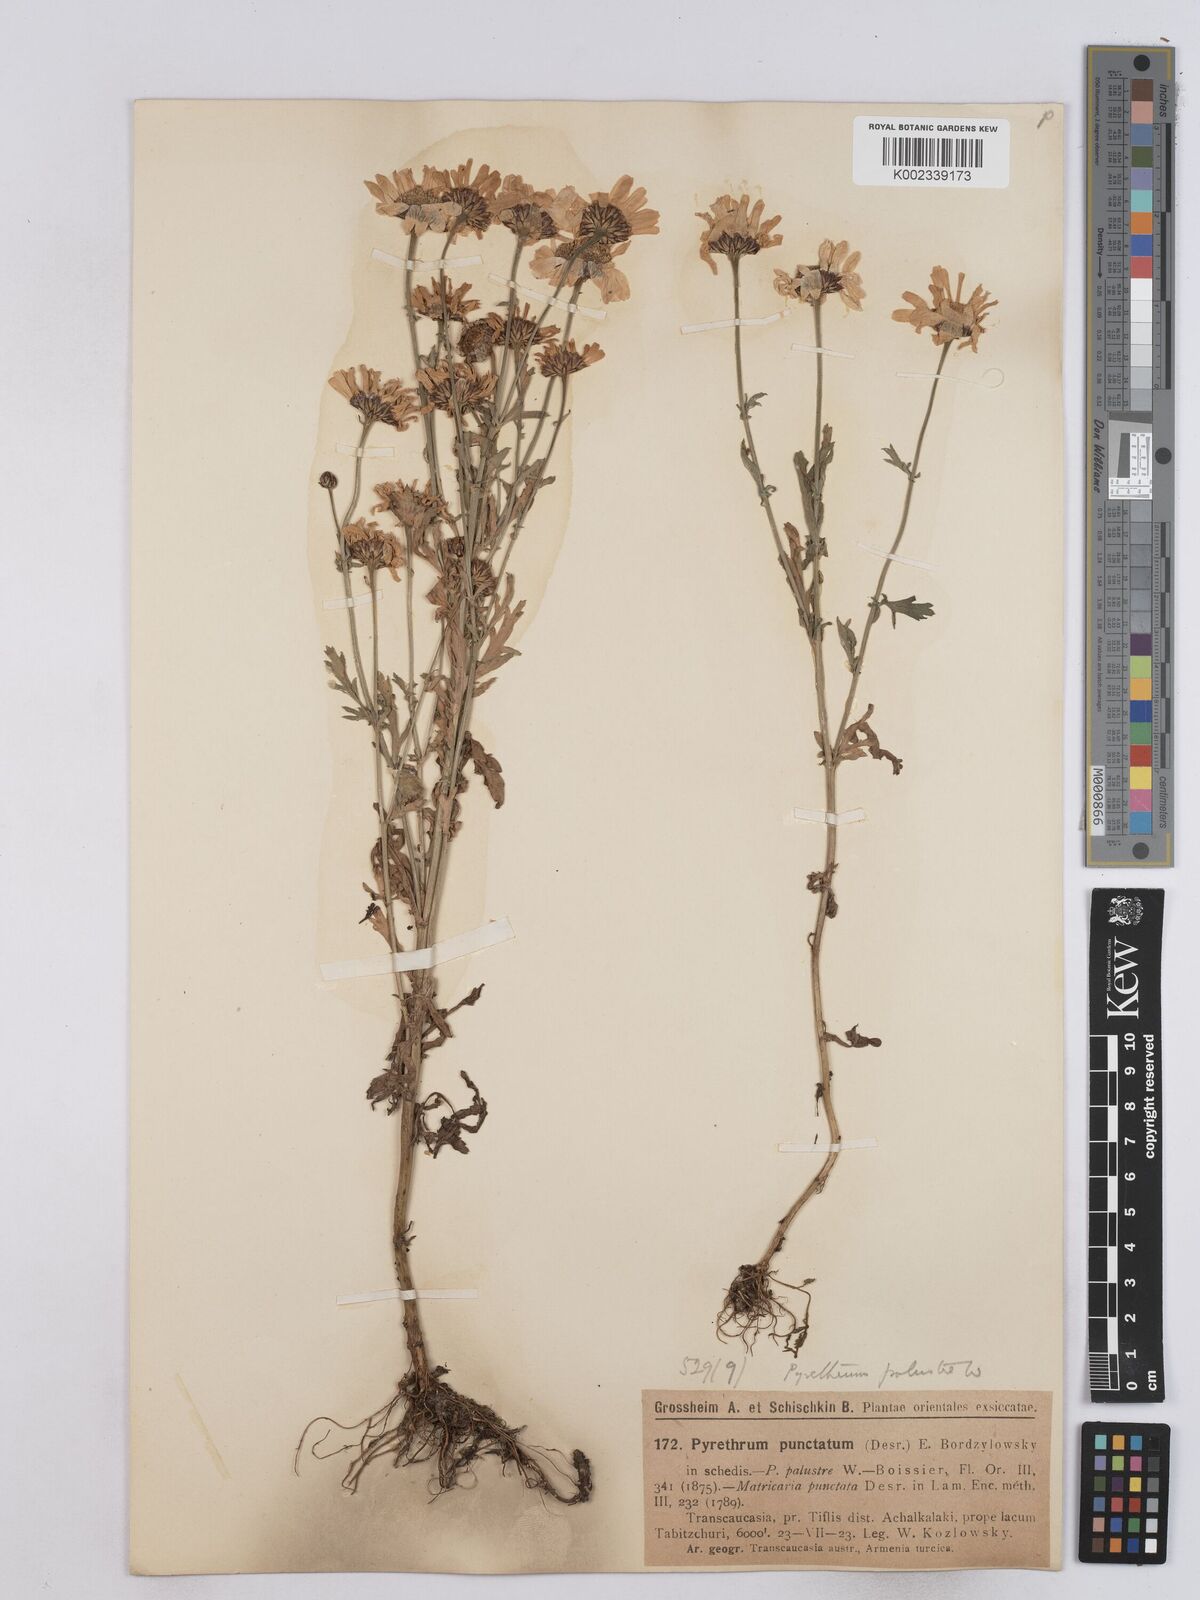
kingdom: Plantae
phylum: Tracheophyta
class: Magnoliopsida
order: Asterales
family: Asteraceae
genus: Tanacetum
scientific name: Tanacetum punctatum
